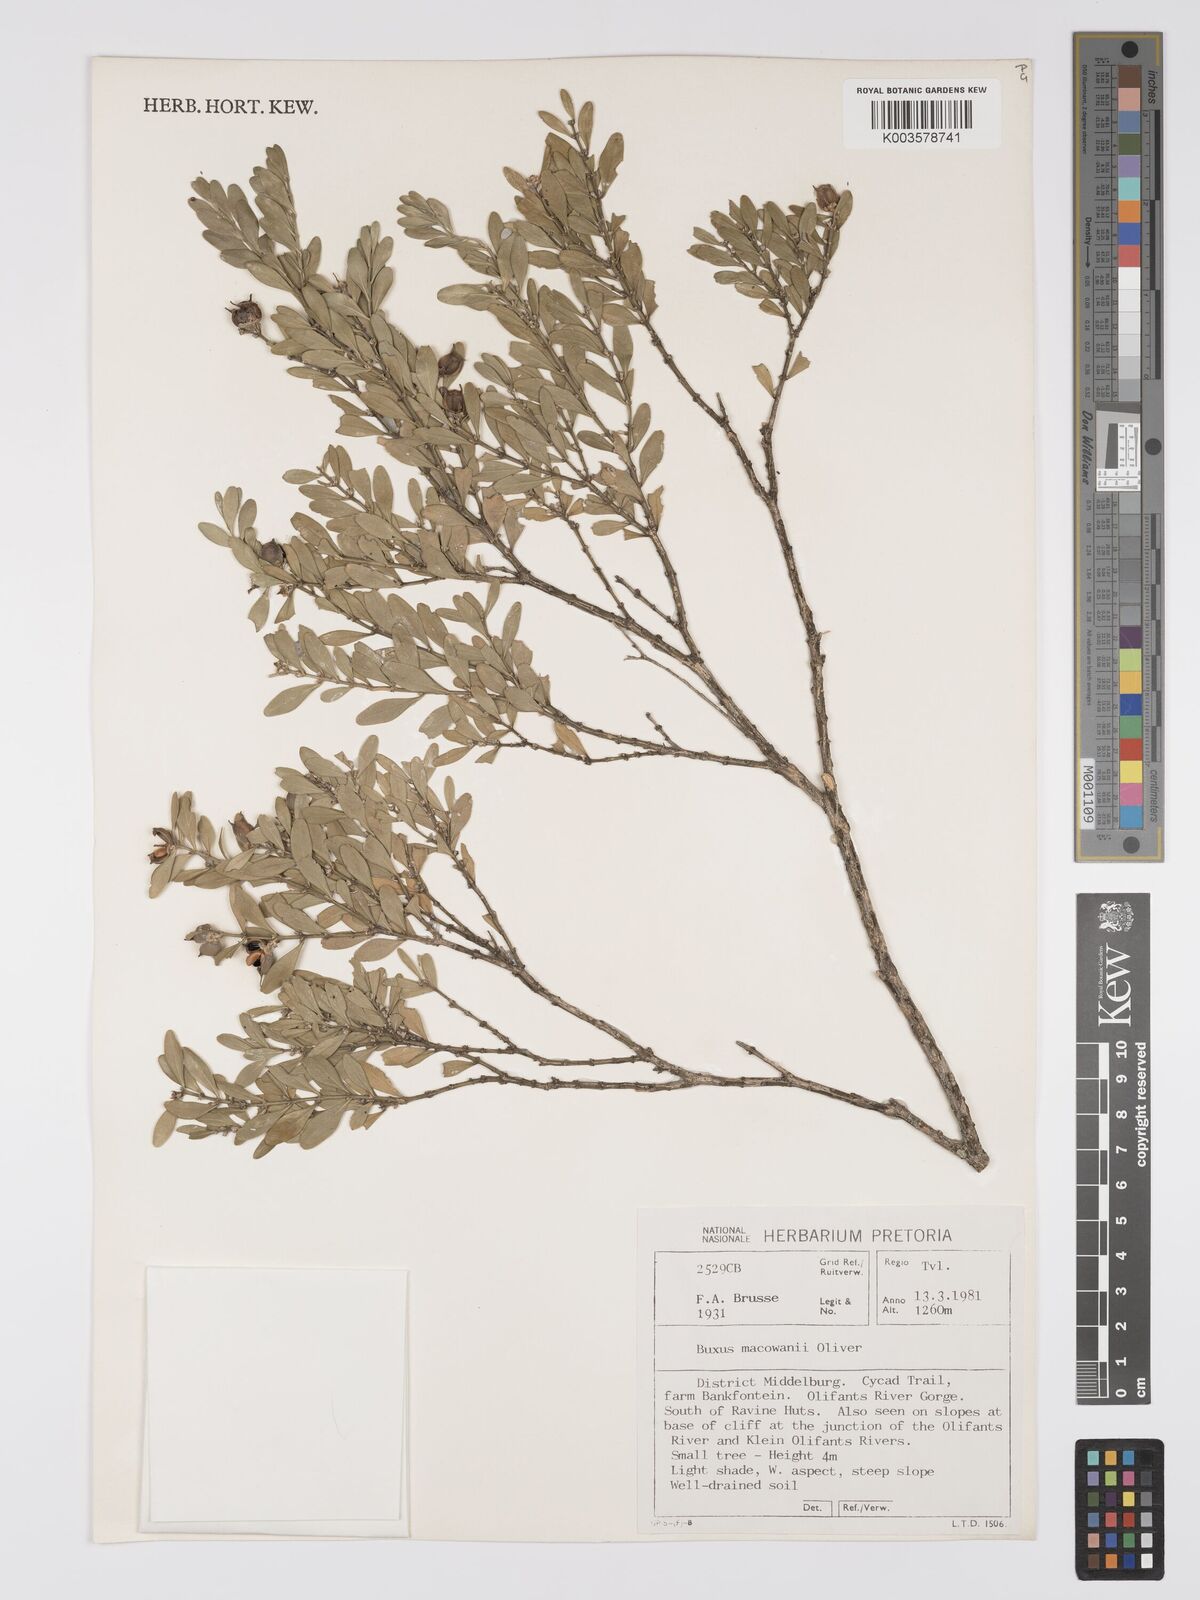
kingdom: Plantae
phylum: Tracheophyta
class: Magnoliopsida
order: Buxales
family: Buxaceae
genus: Buxus
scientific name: Buxus macowanii
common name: Cape box
